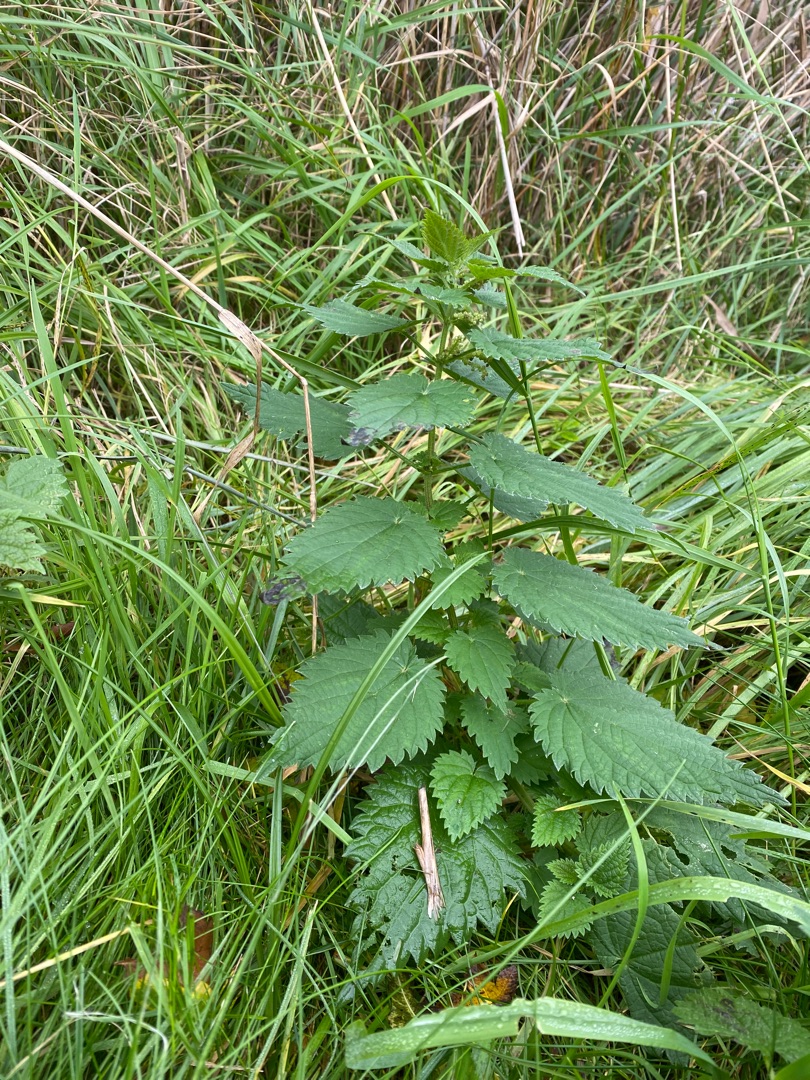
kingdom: Plantae
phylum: Tracheophyta
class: Magnoliopsida
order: Rosales
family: Urticaceae
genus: Urtica
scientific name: Urtica dioica
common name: Stor nælde
